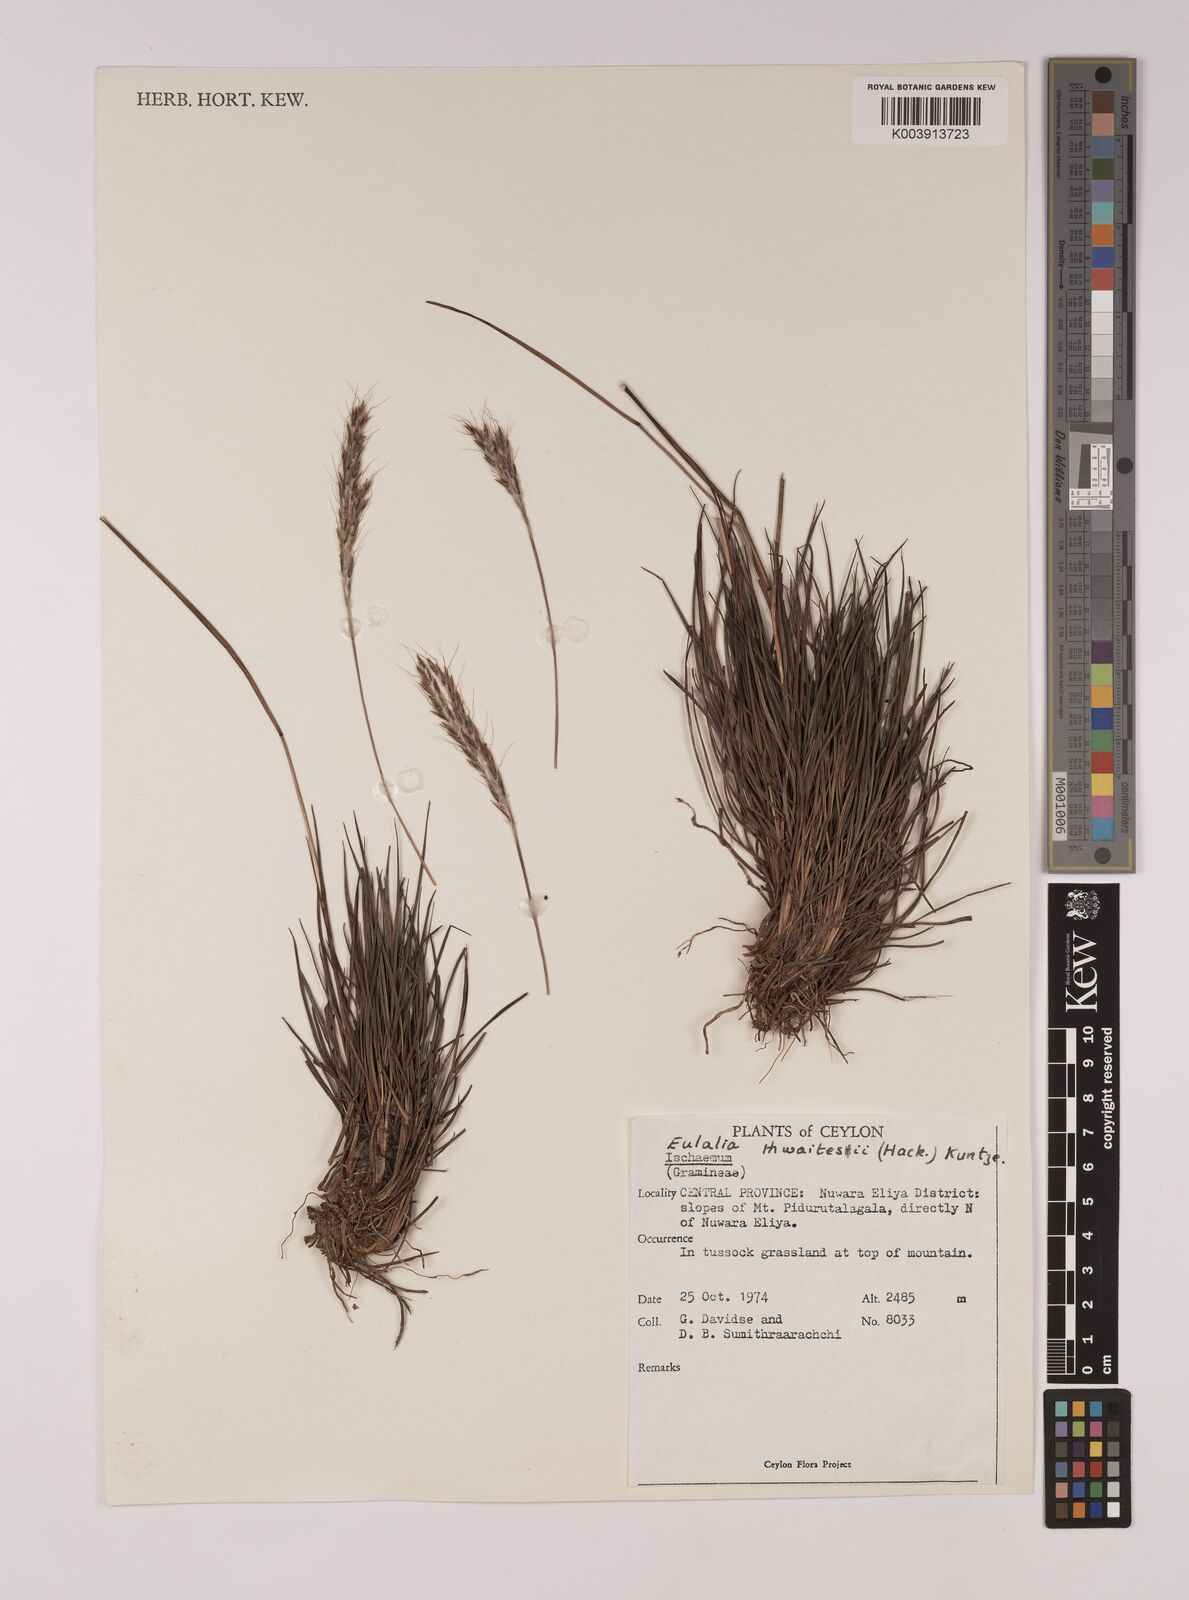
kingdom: Plantae
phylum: Tracheophyta
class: Liliopsida
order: Poales
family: Poaceae
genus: Eulalia
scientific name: Eulalia thwaitesii
